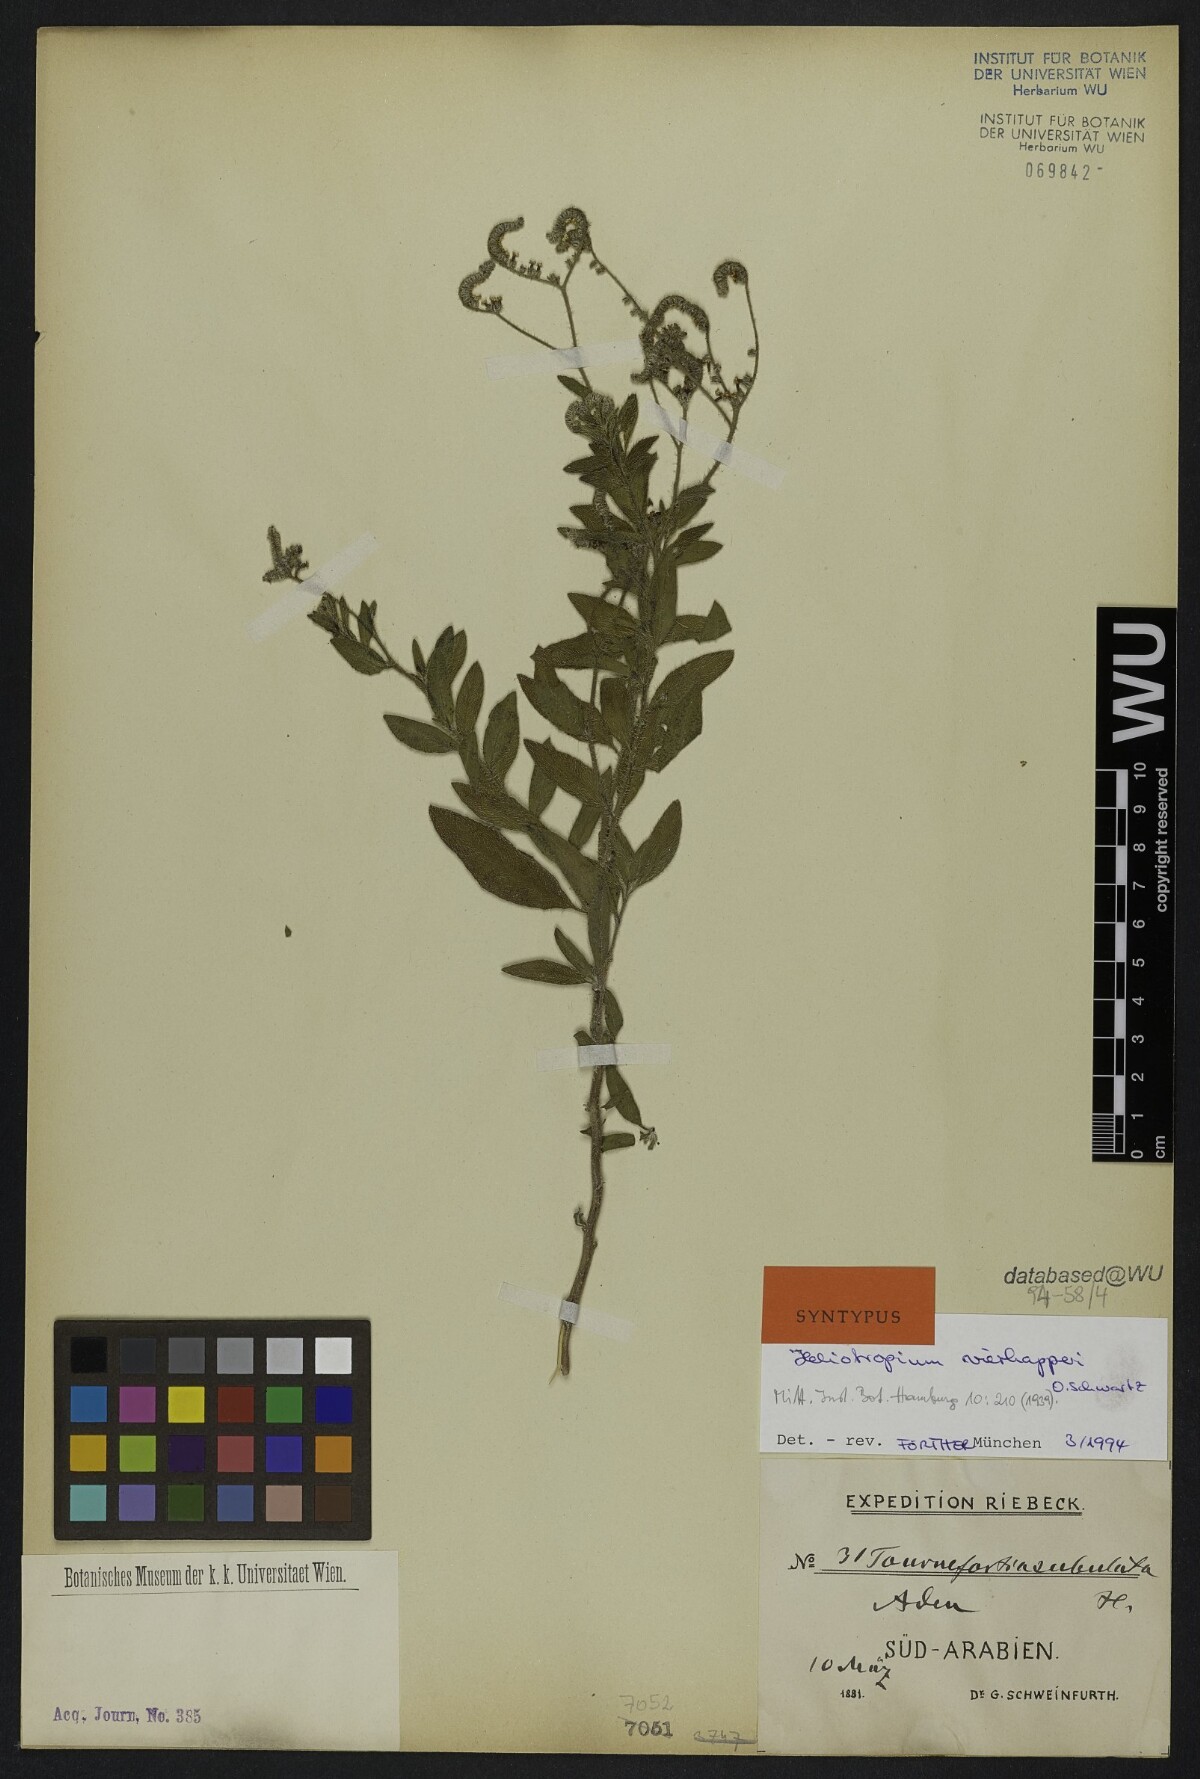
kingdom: Plantae
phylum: Tracheophyta
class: Magnoliopsida
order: Boraginales
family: Heliotropiaceae
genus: Heliotropium
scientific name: Heliotropium ophioglossum
